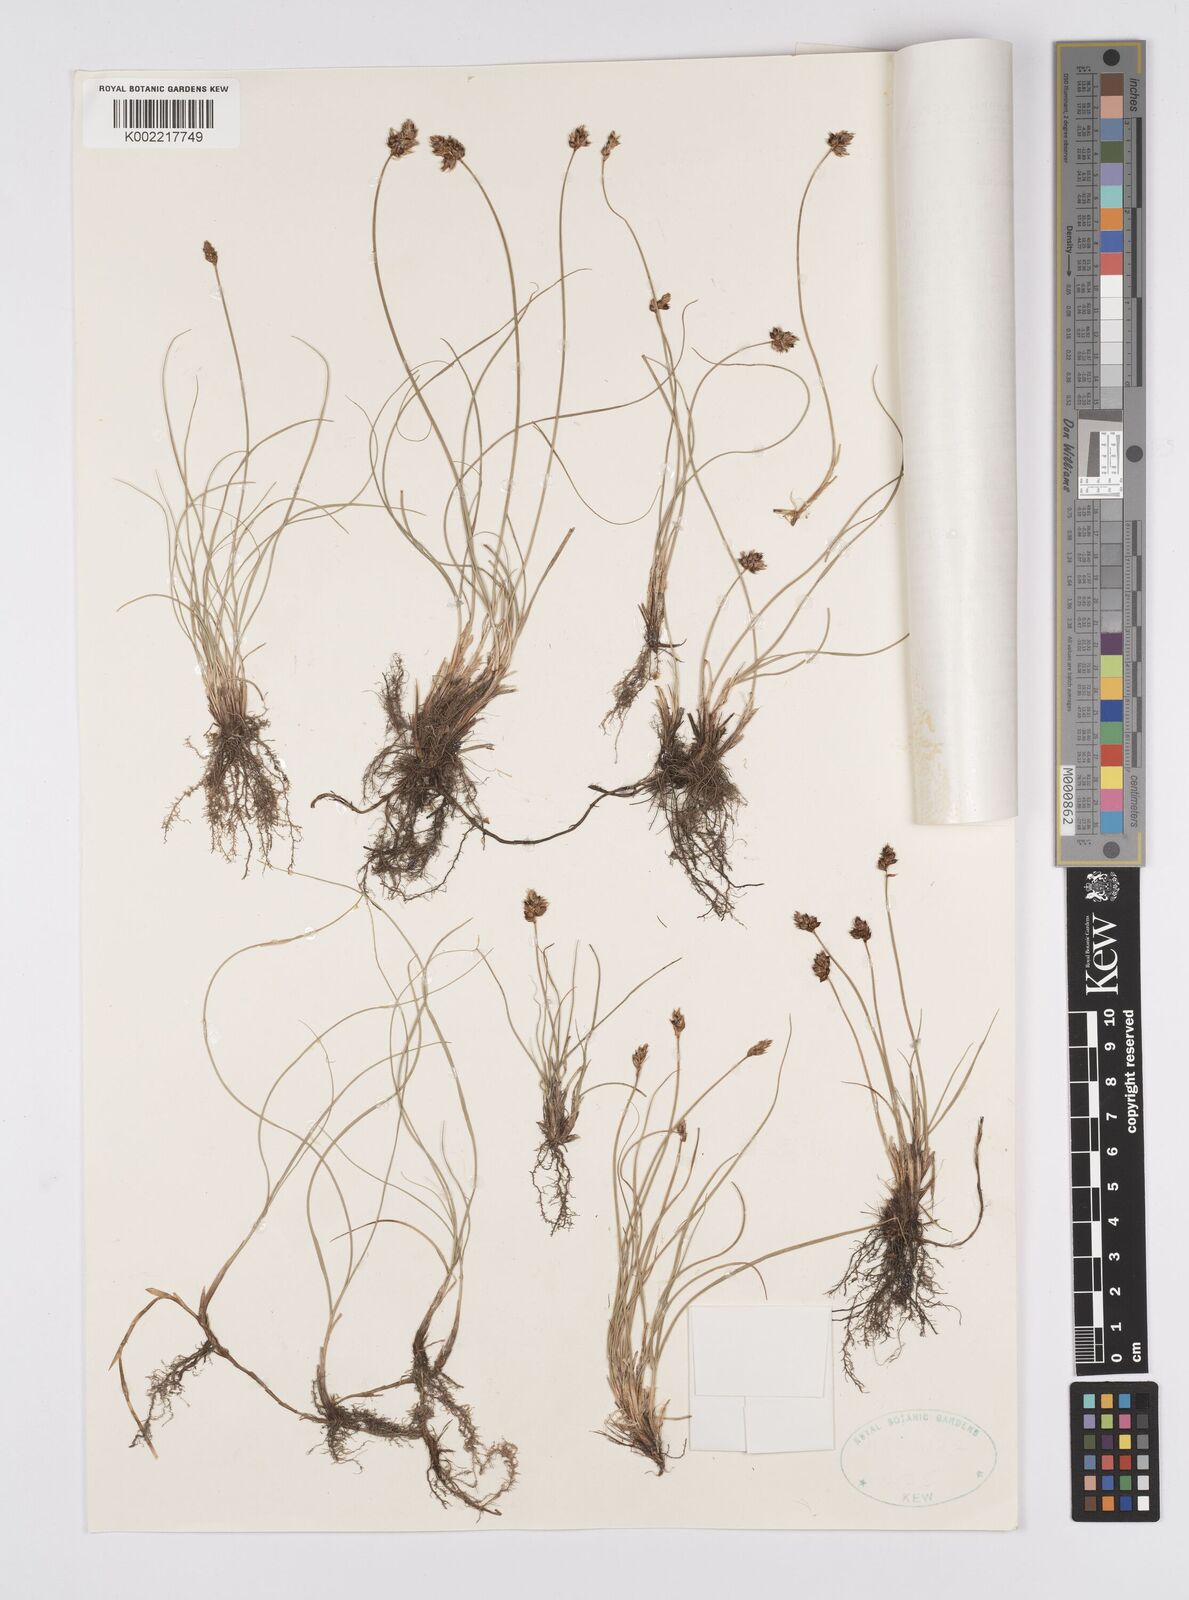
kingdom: Plantae
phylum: Tracheophyta
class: Liliopsida
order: Poales
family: Cyperaceae
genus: Carex
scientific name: Carex stenophylla
